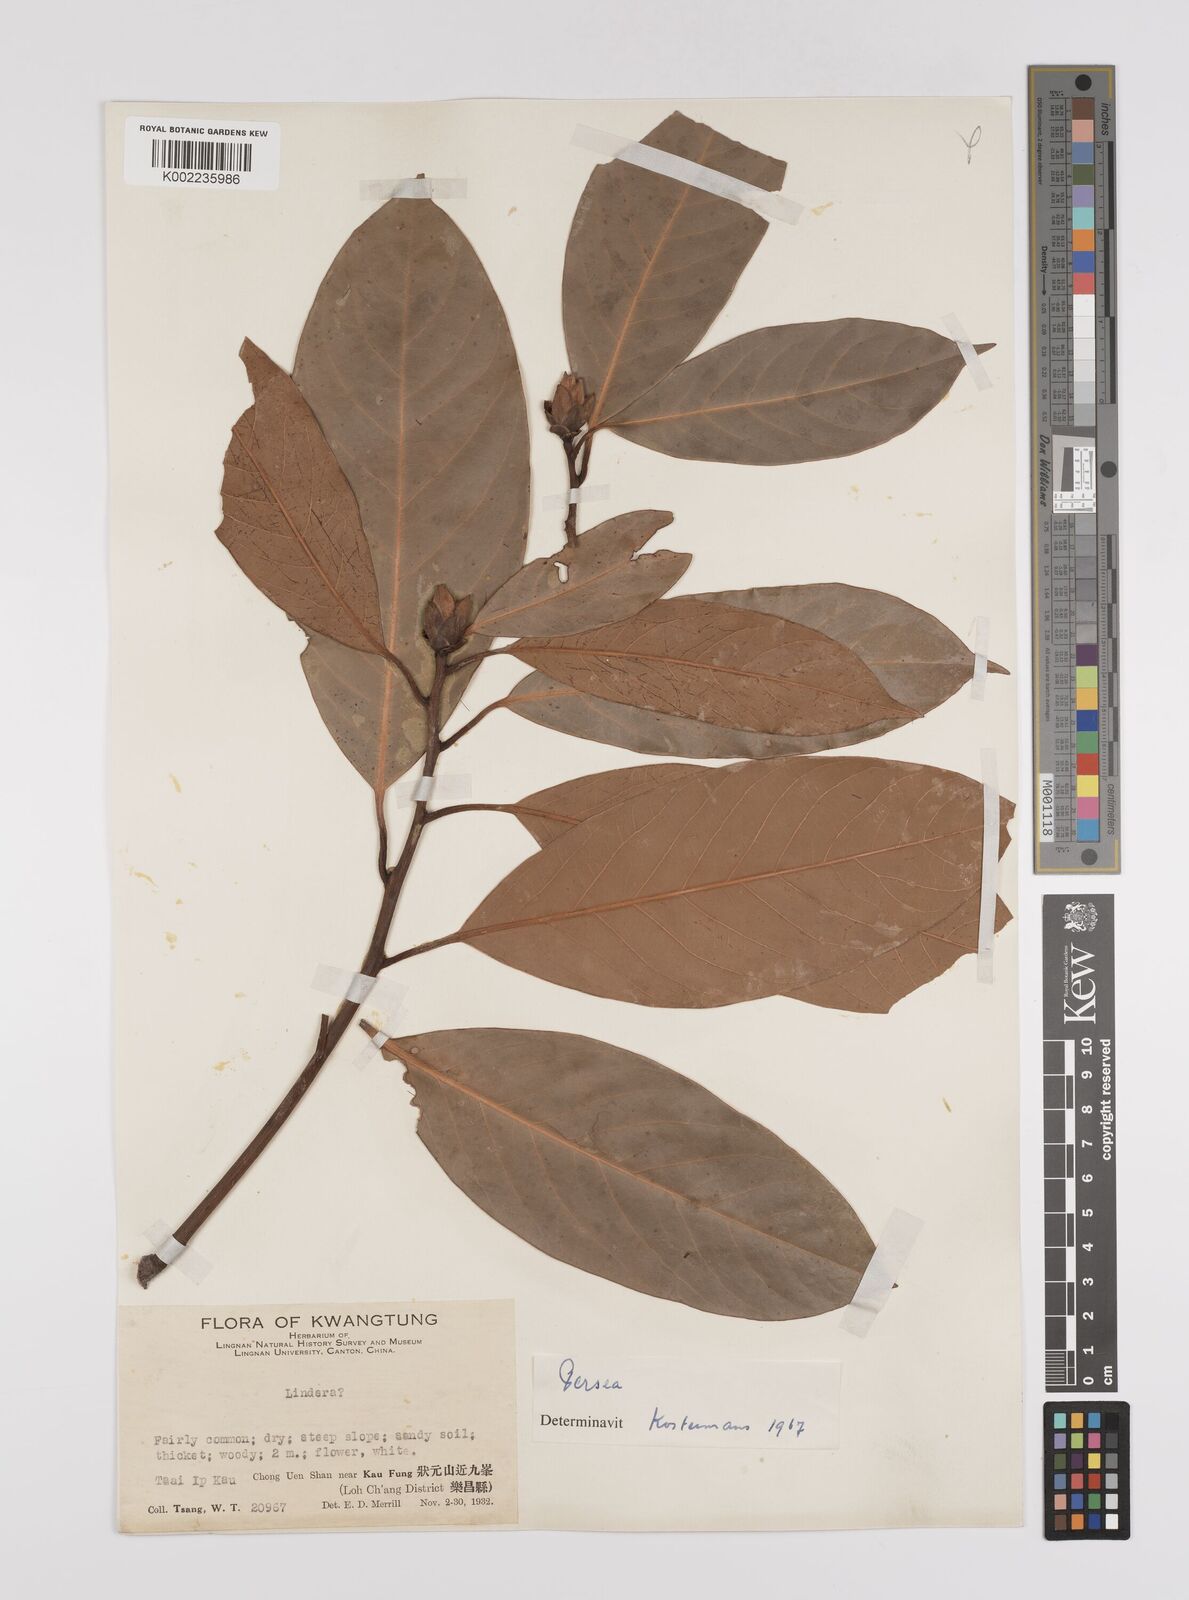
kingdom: Plantae
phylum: Tracheophyta
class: Magnoliopsida
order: Laurales
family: Lauraceae
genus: Persea
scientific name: Persea
